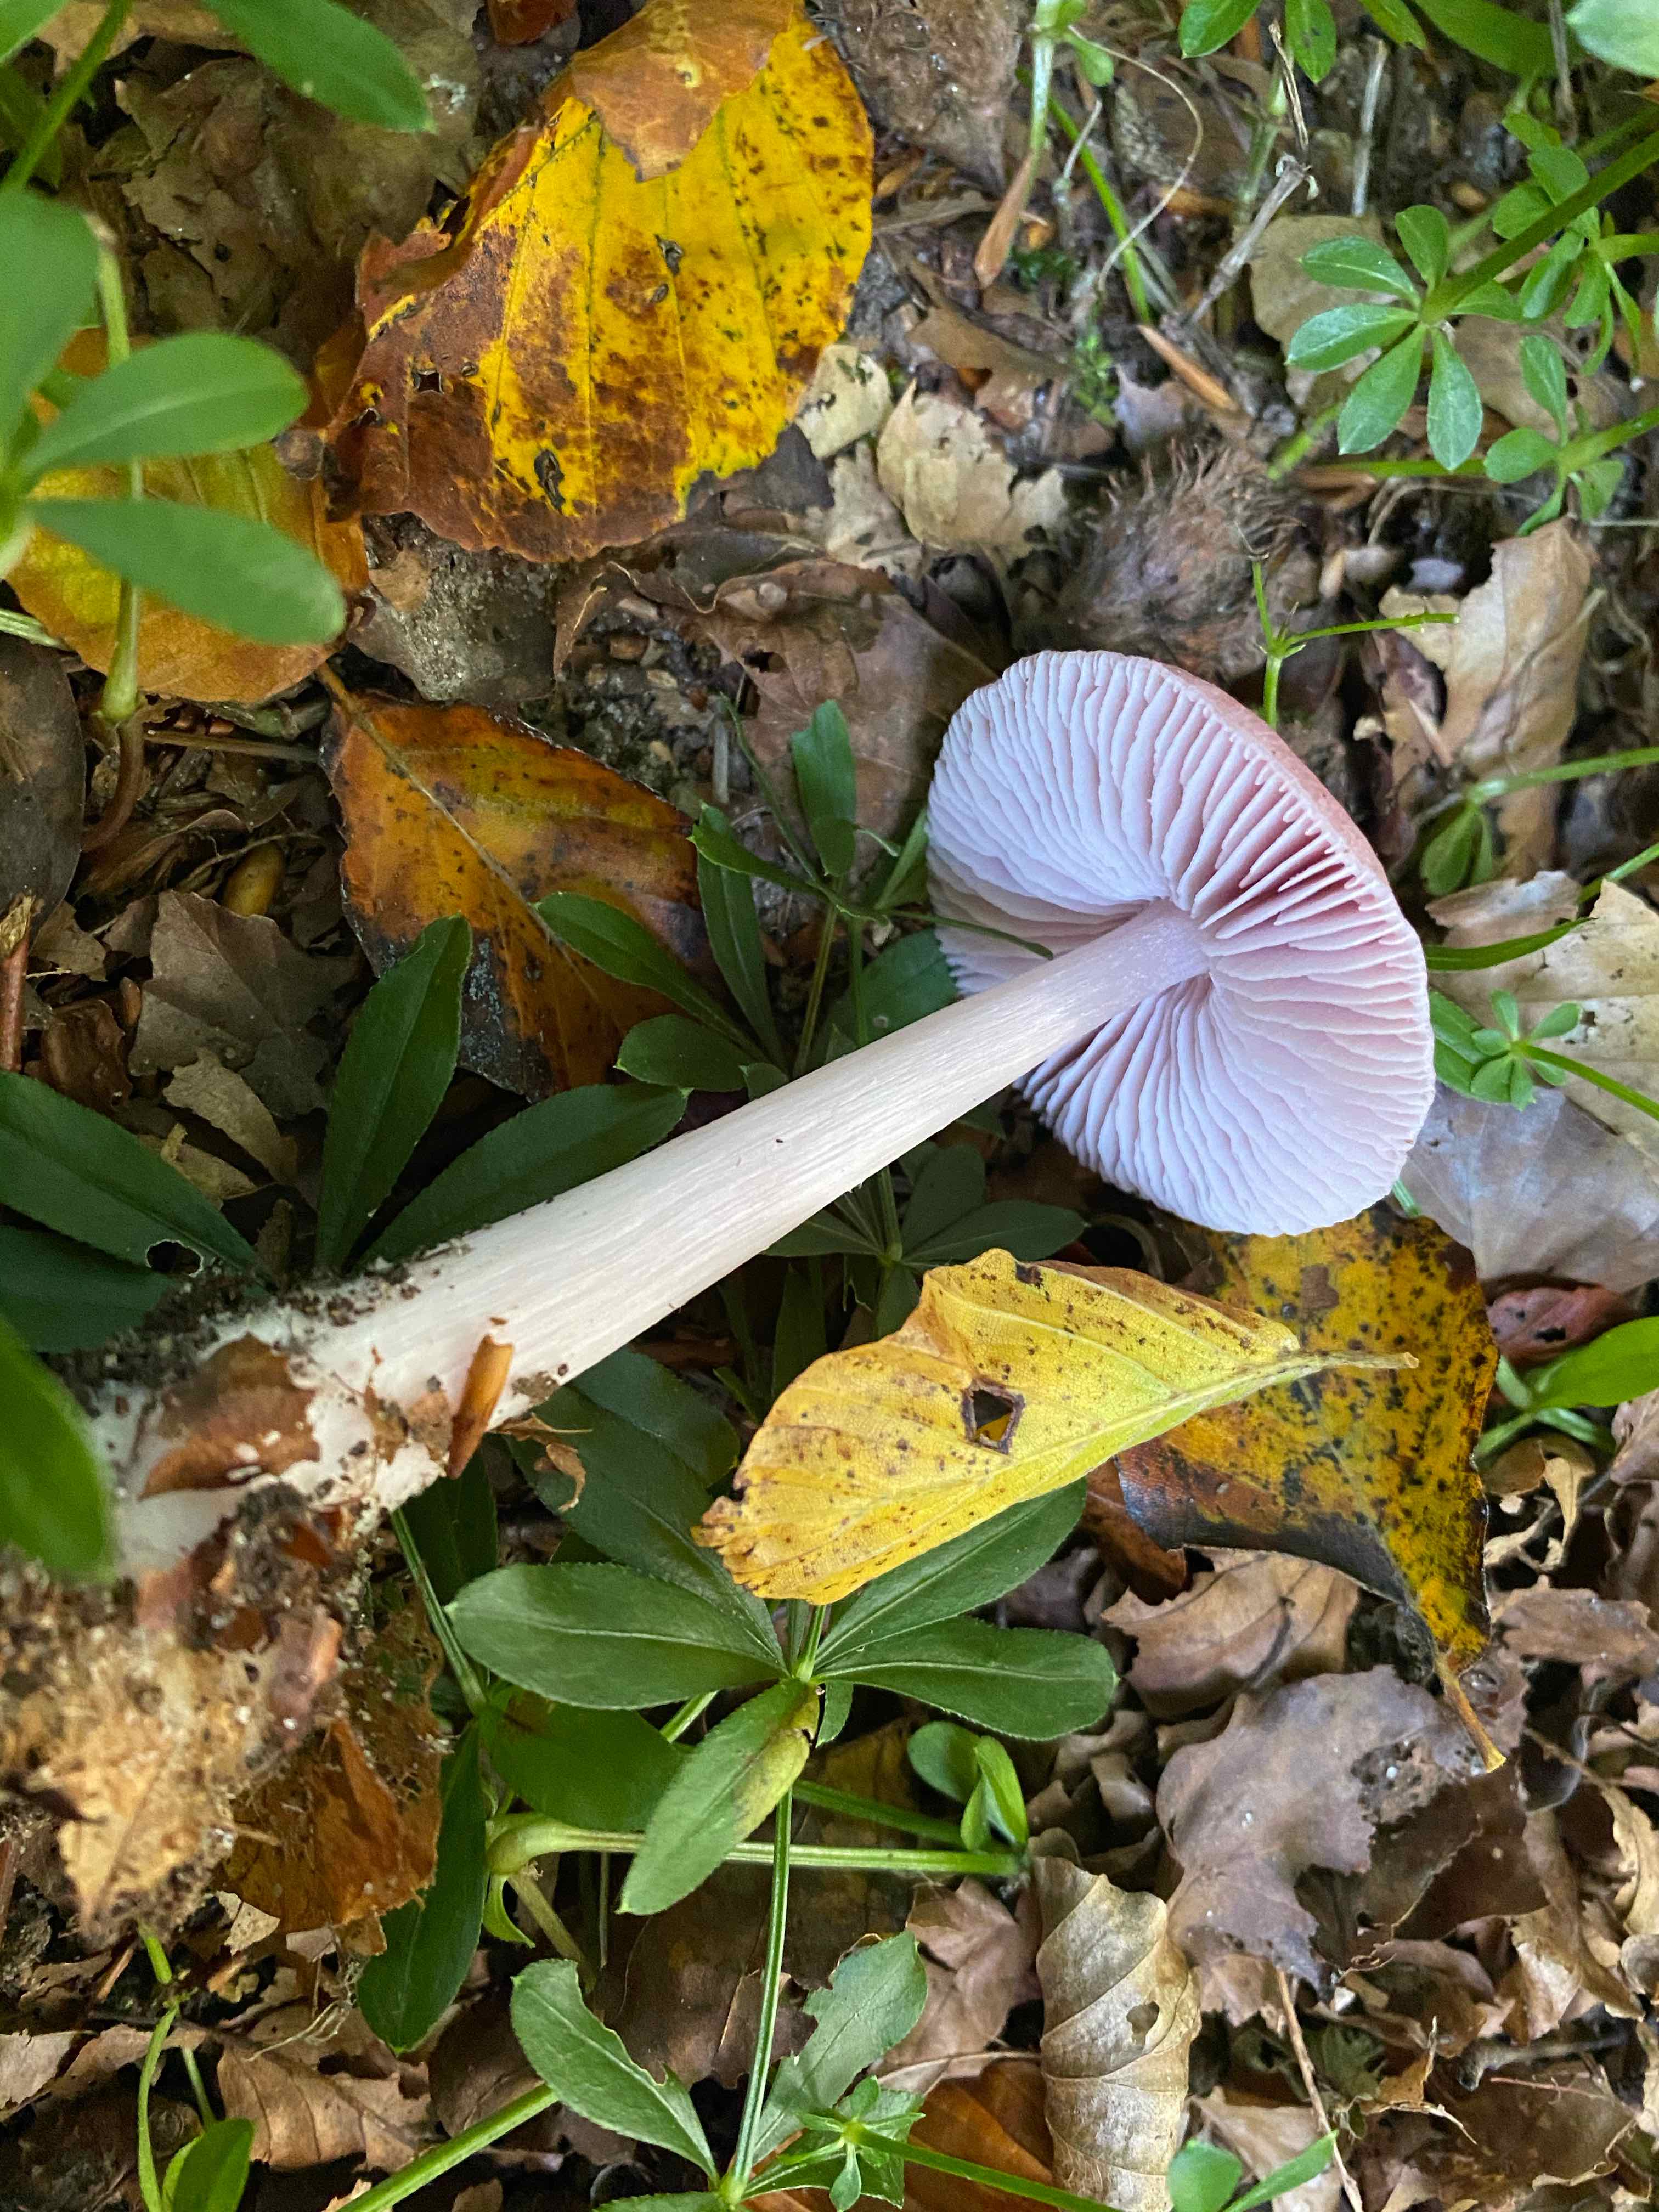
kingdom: Fungi
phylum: Basidiomycota
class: Agaricomycetes
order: Agaricales
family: Mycenaceae
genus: Mycena
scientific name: Mycena rosea
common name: rosa huesvamp
